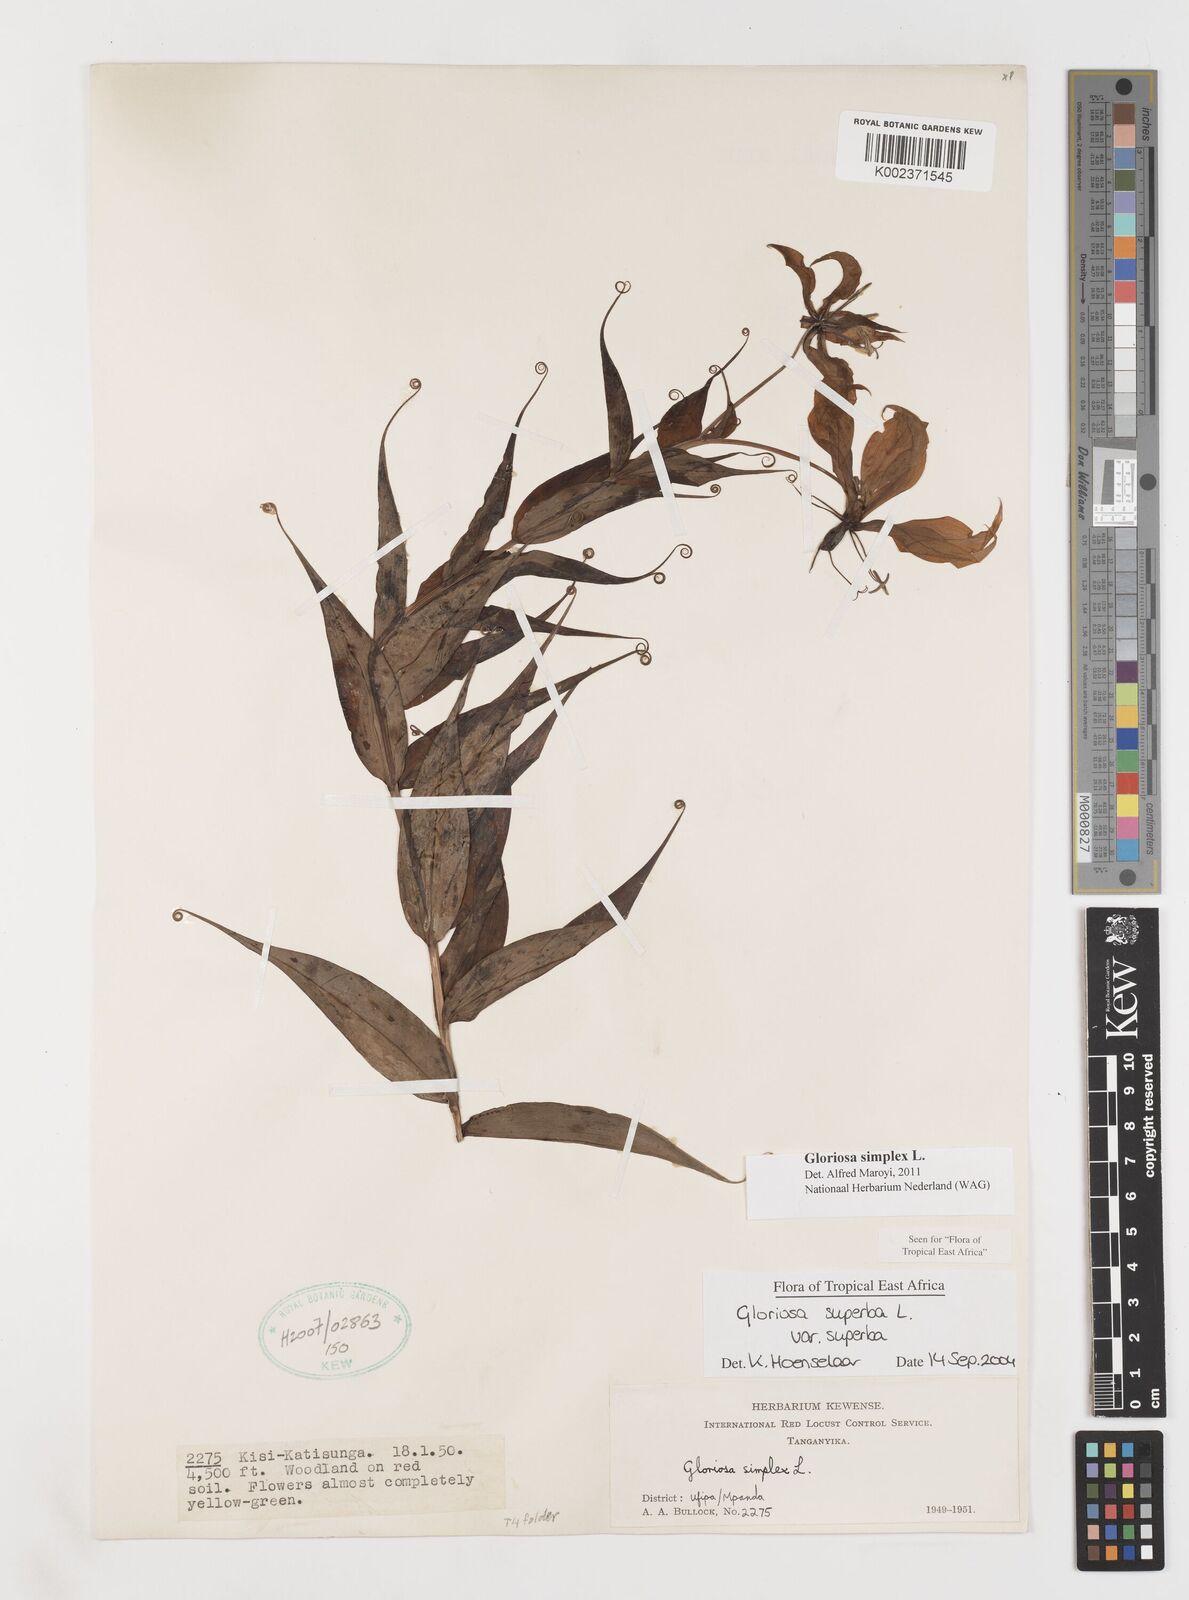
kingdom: Plantae
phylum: Tracheophyta
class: Liliopsida
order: Liliales
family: Colchicaceae
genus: Gloriosa
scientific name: Gloriosa simplex
